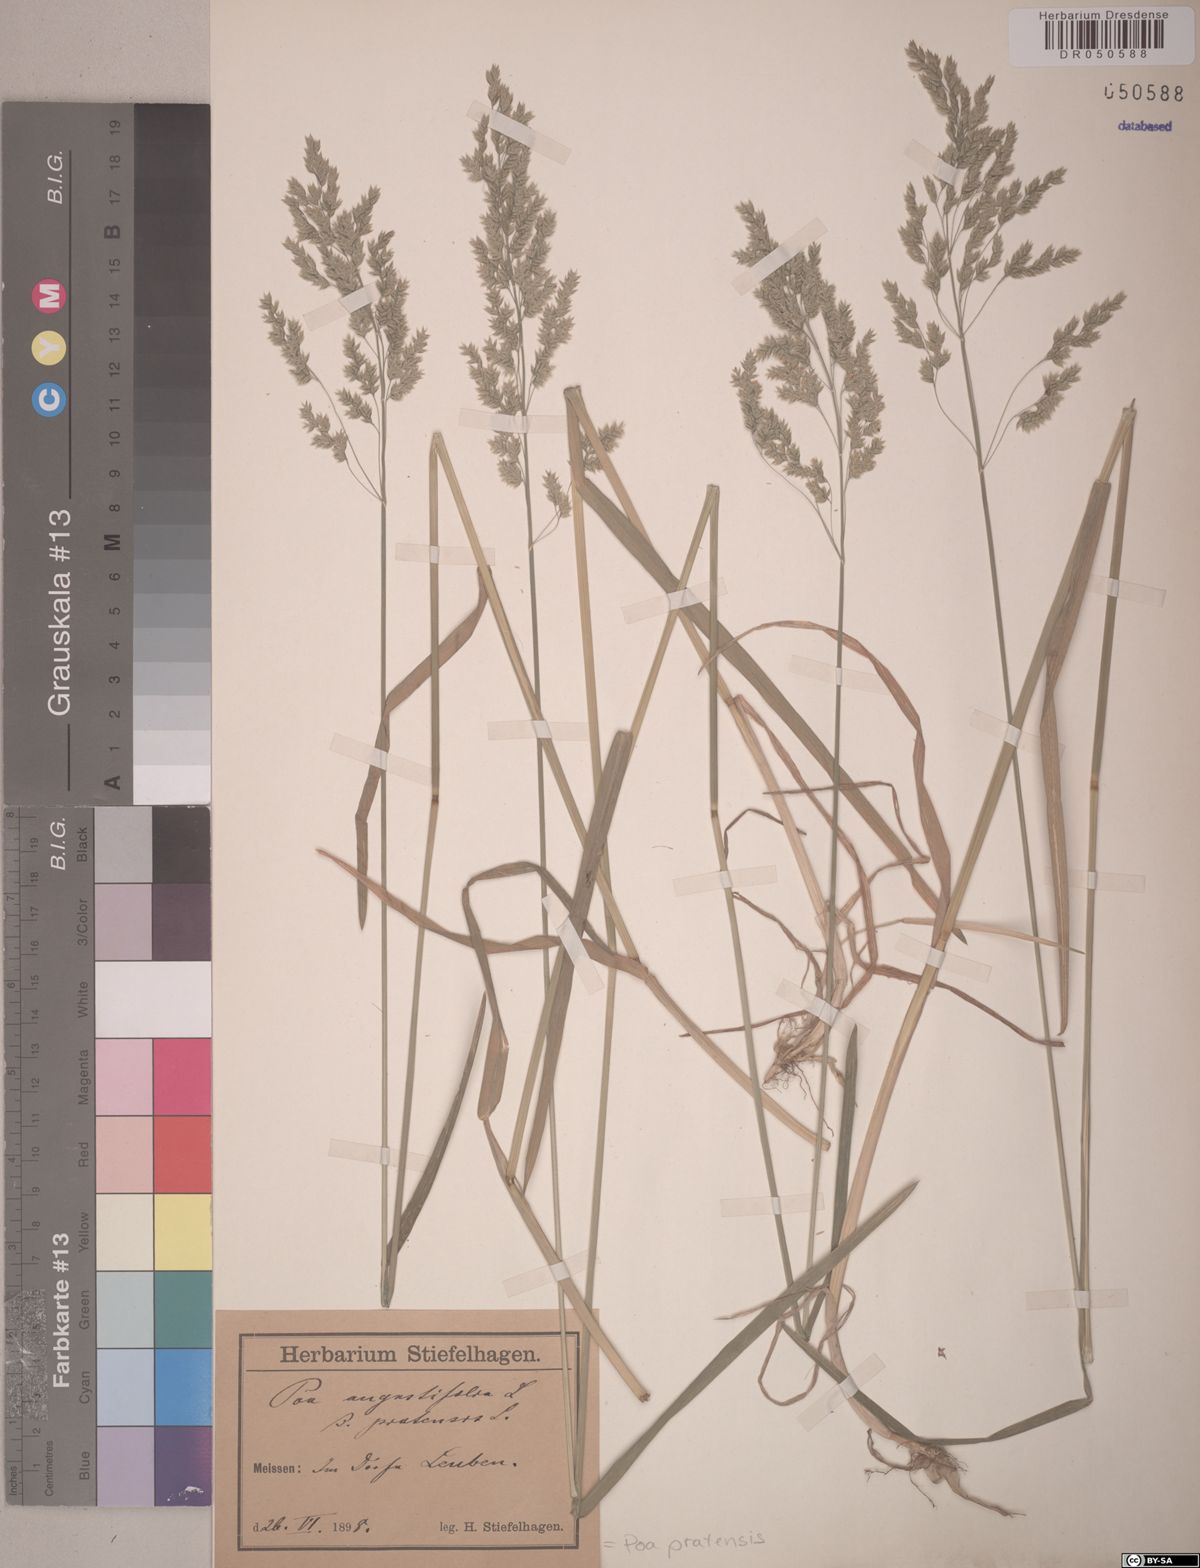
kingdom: Plantae
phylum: Tracheophyta
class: Liliopsida
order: Poales
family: Poaceae
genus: Poa
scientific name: Poa pratensis
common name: Kentucky bluegrass
